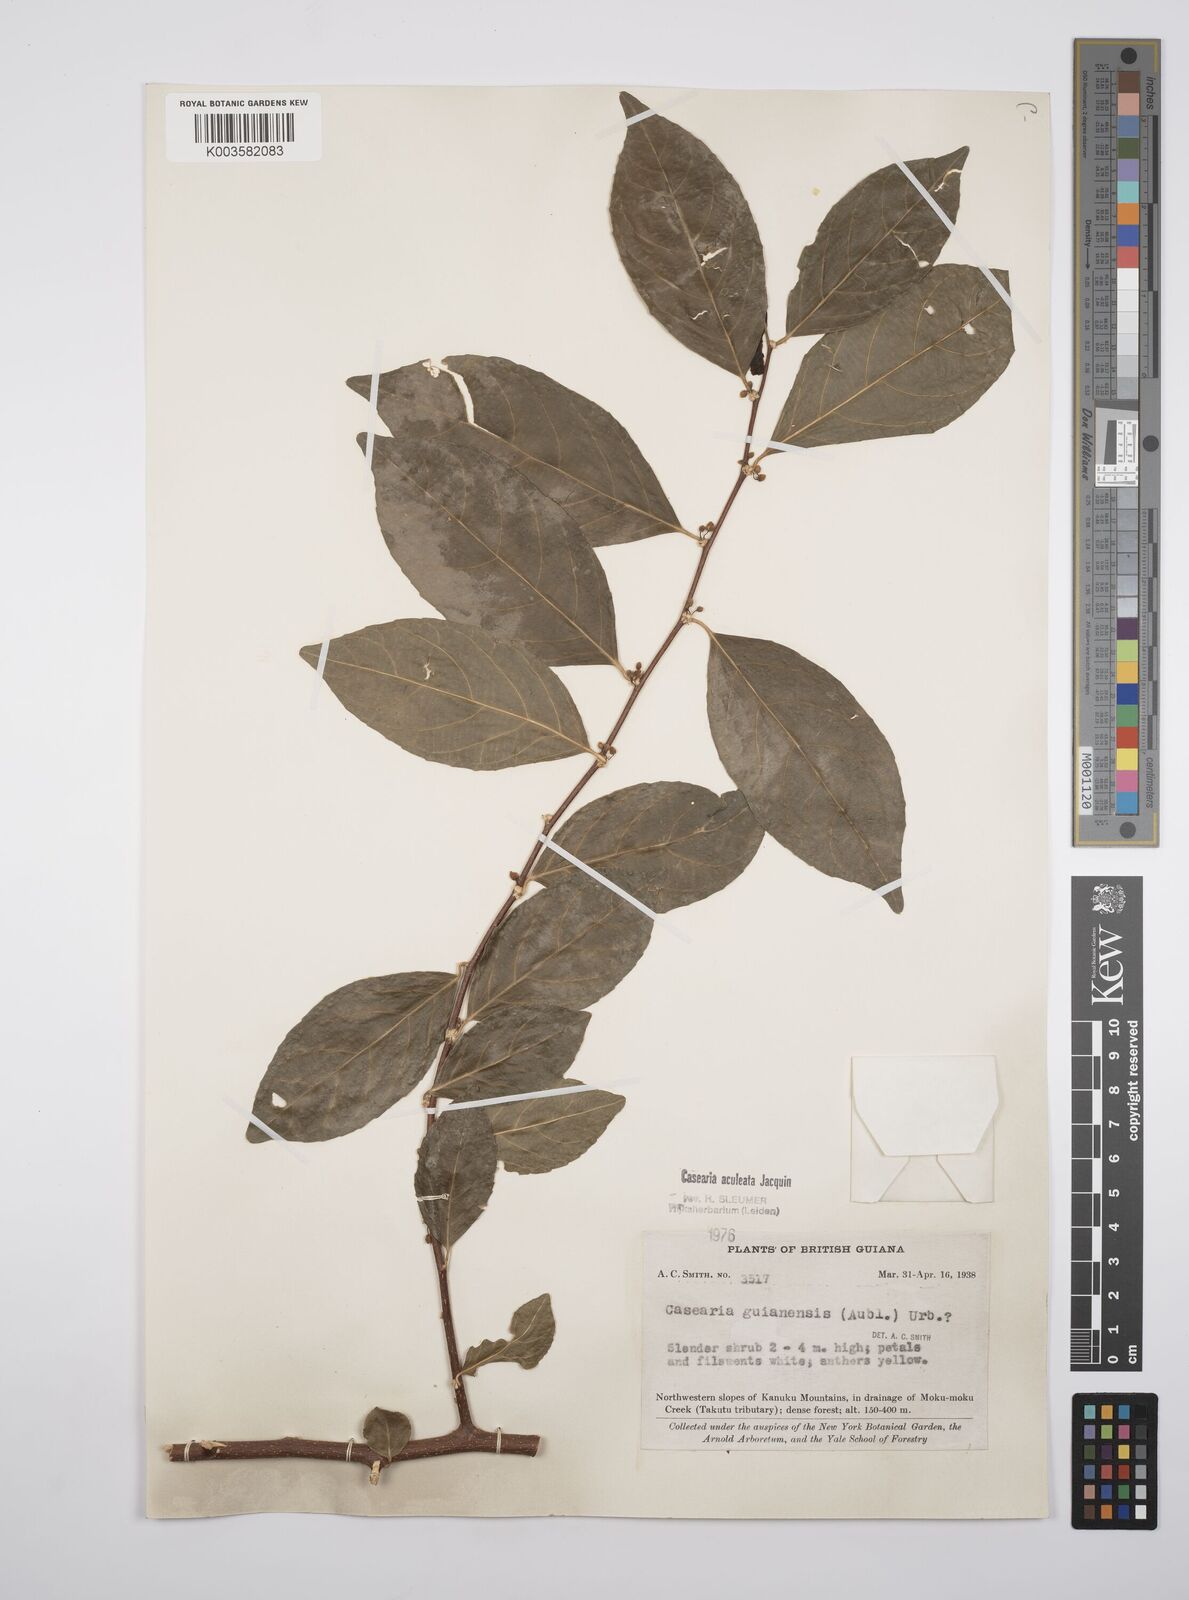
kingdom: Plantae
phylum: Tracheophyta
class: Magnoliopsida
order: Malpighiales
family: Salicaceae
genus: Casearia
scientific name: Casearia aculeata
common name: Cockspur
